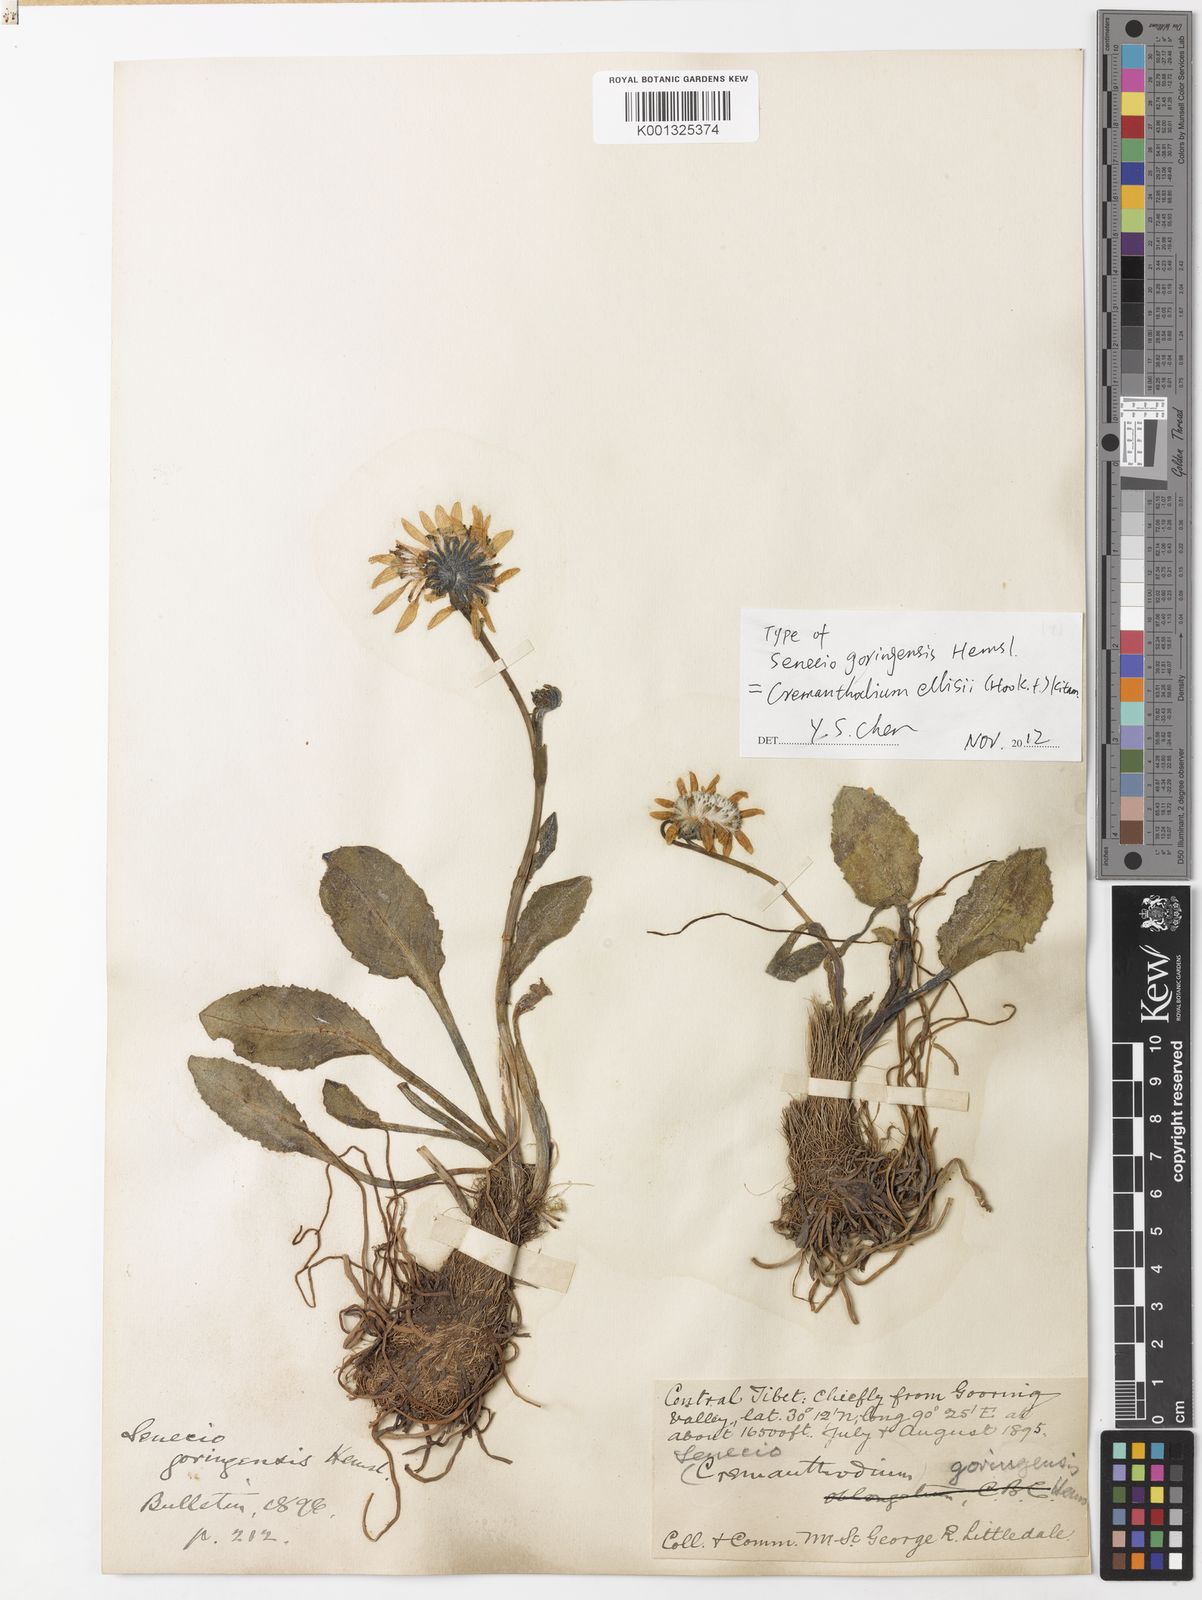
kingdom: Plantae
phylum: Tracheophyta
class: Magnoliopsida
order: Asterales
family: Asteraceae
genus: Cremanthodium
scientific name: Cremanthodium ellisii
